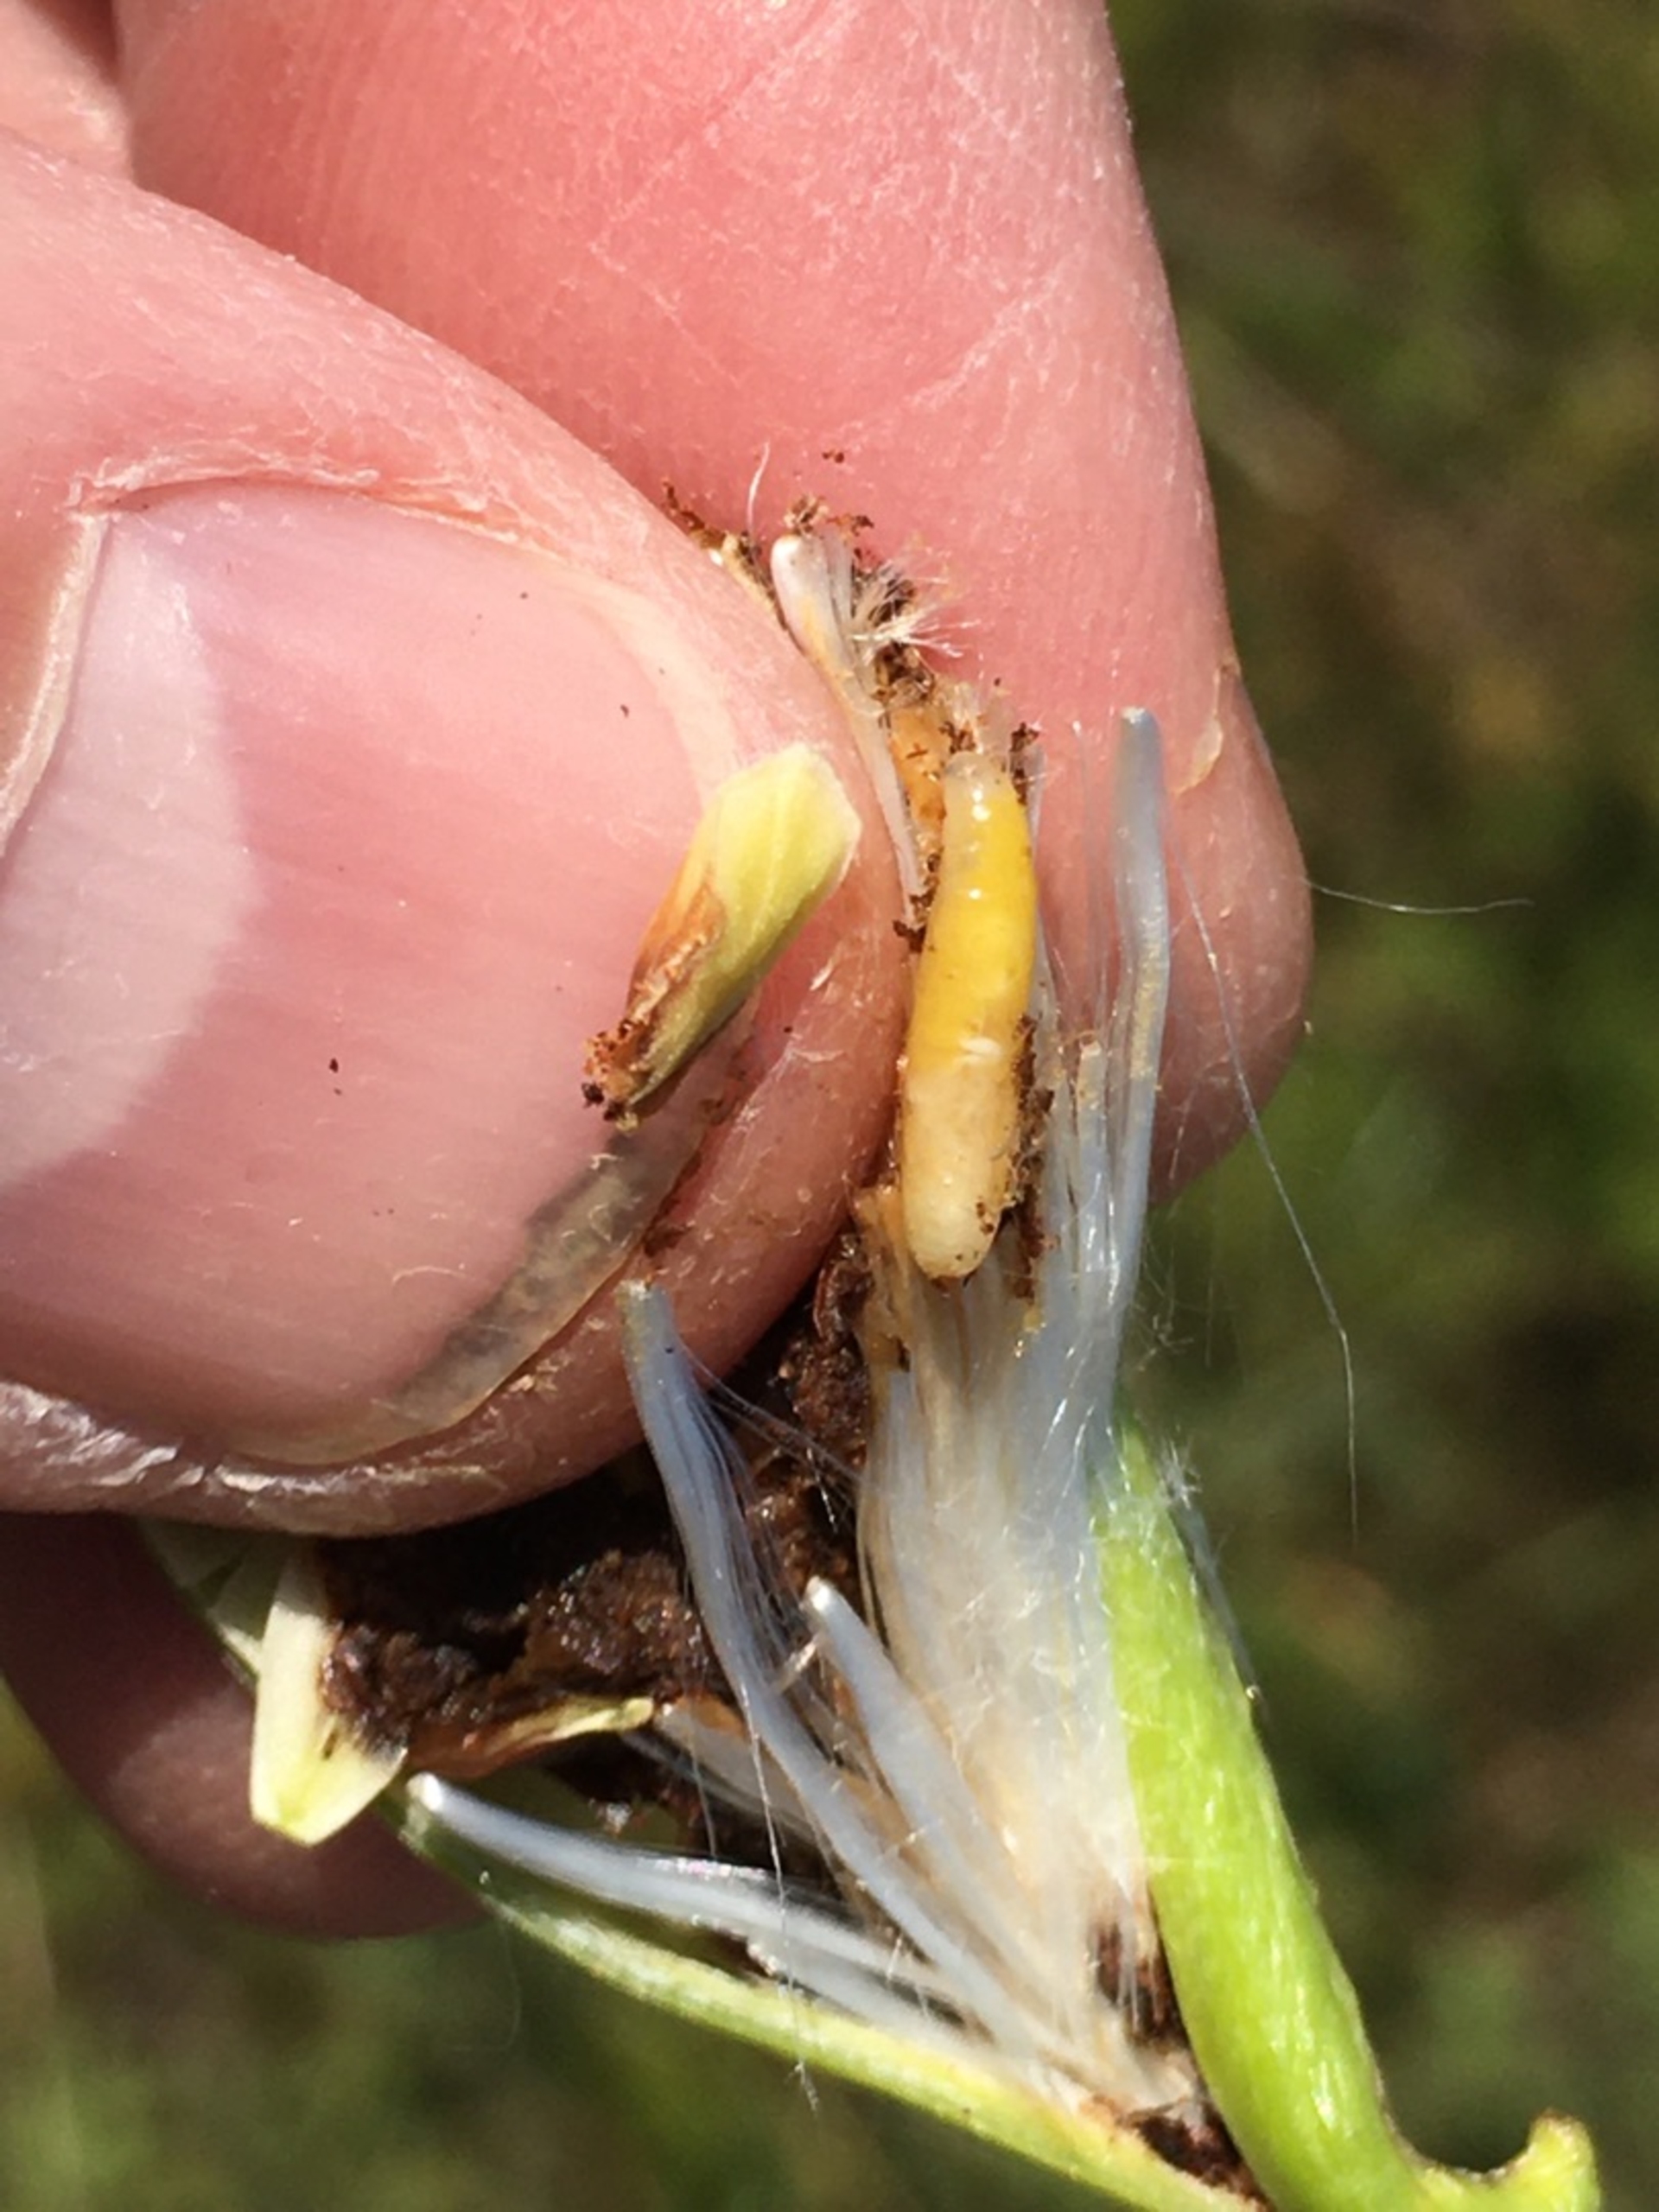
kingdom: Animalia
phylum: Arthropoda
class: Insecta
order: Diptera
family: Tephritidae
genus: Euphranta
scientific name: Euphranta connexa
